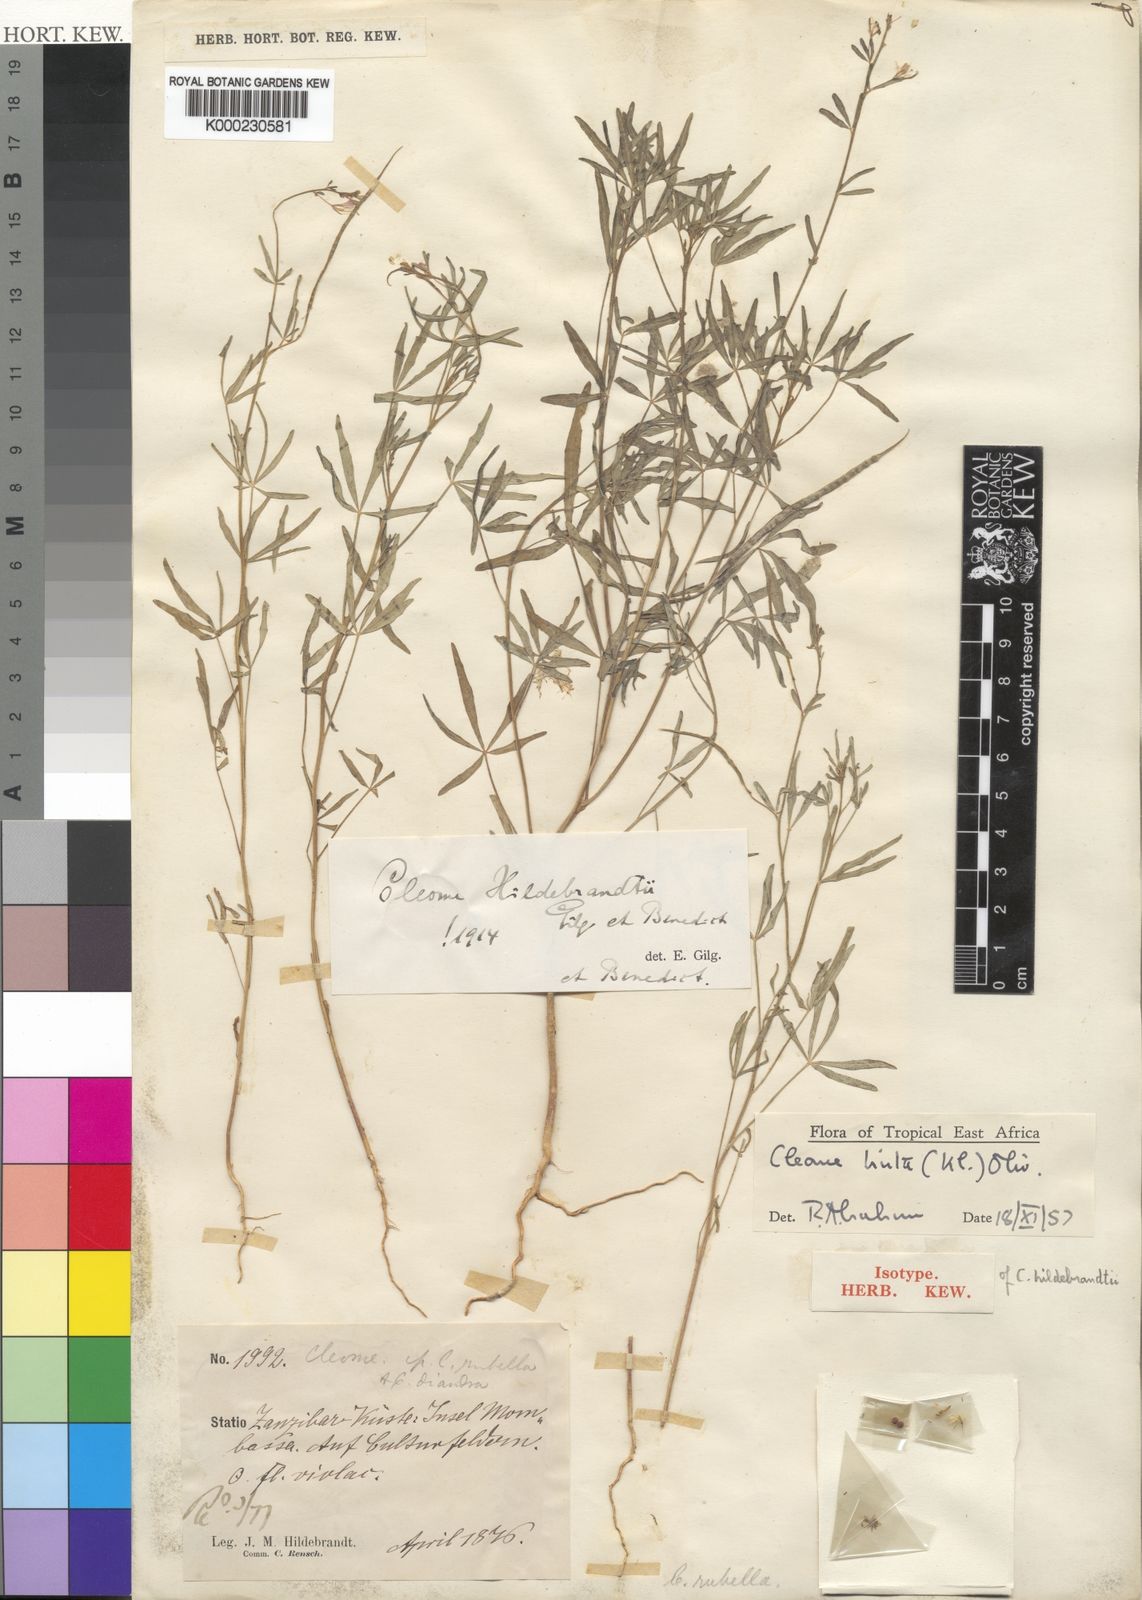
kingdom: Plantae
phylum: Tracheophyta
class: Magnoliopsida
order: Brassicales
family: Cleomaceae
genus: Sieruela
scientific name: Sieruela hirta
